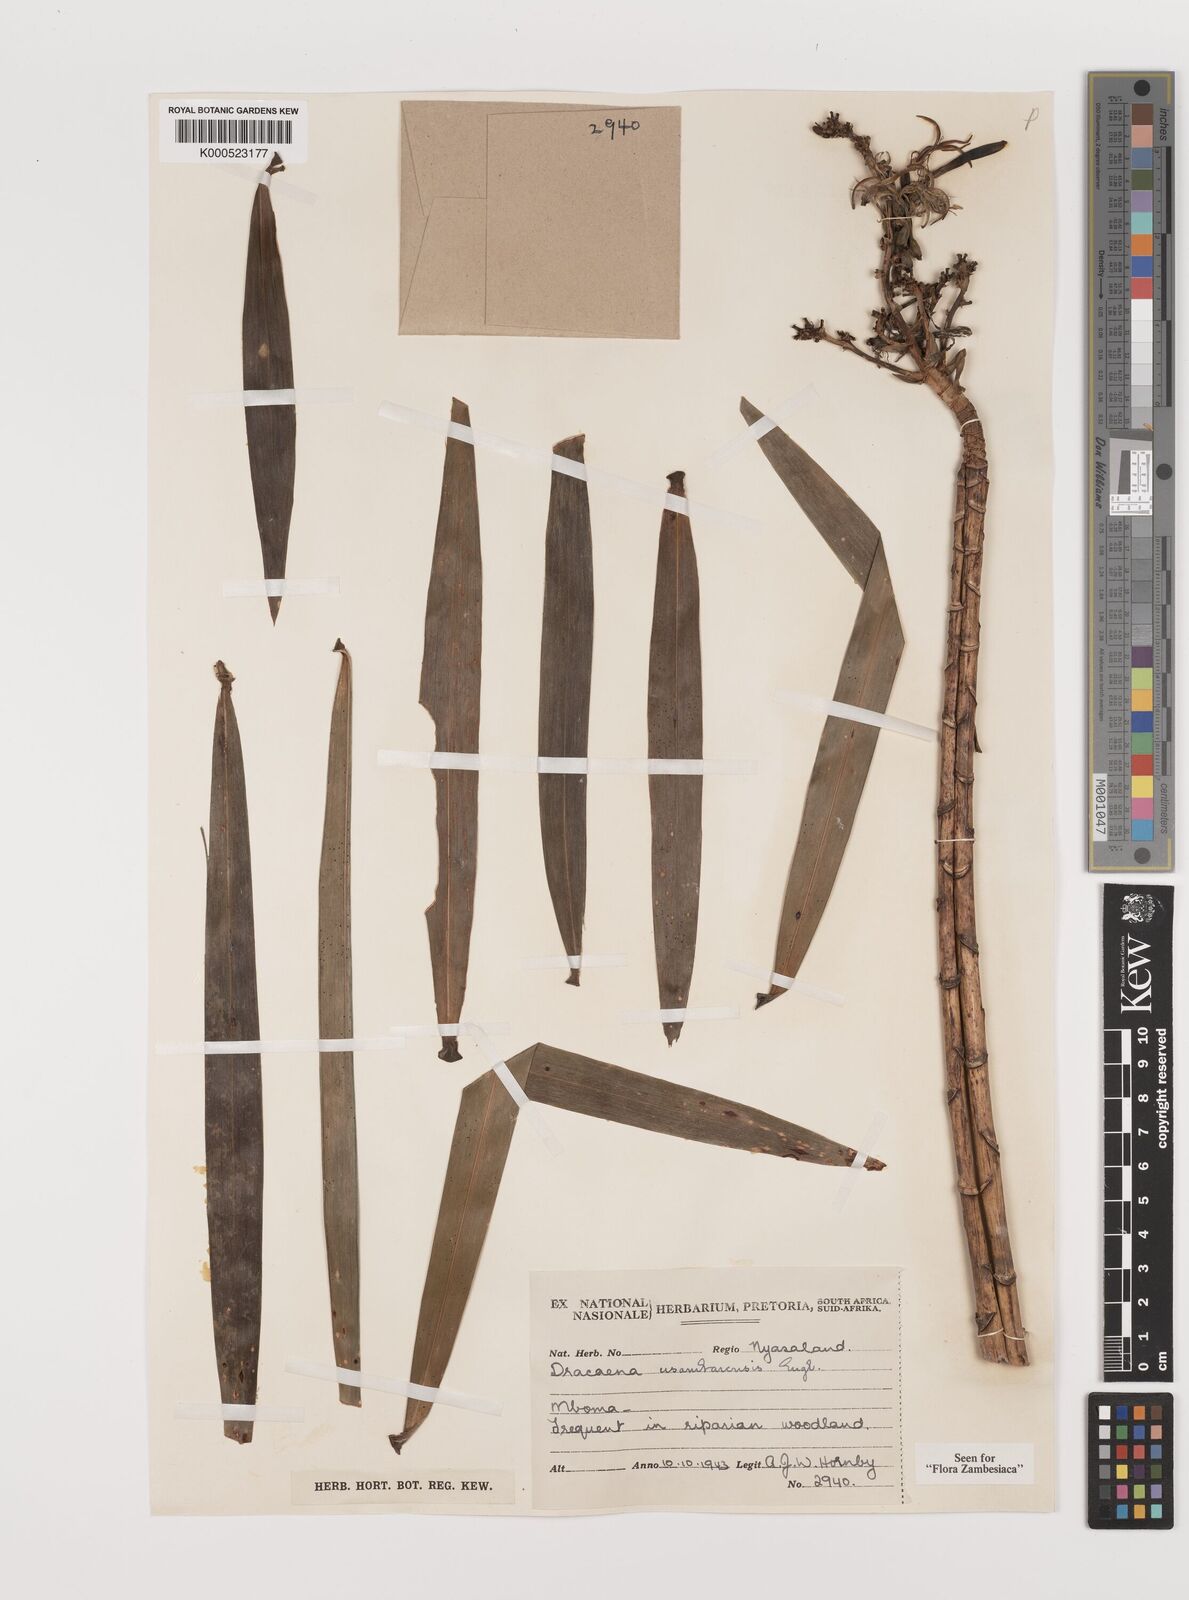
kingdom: Plantae
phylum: Tracheophyta
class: Liliopsida
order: Asparagales
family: Asparagaceae
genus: Dracaena
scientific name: Dracaena usambarensis
